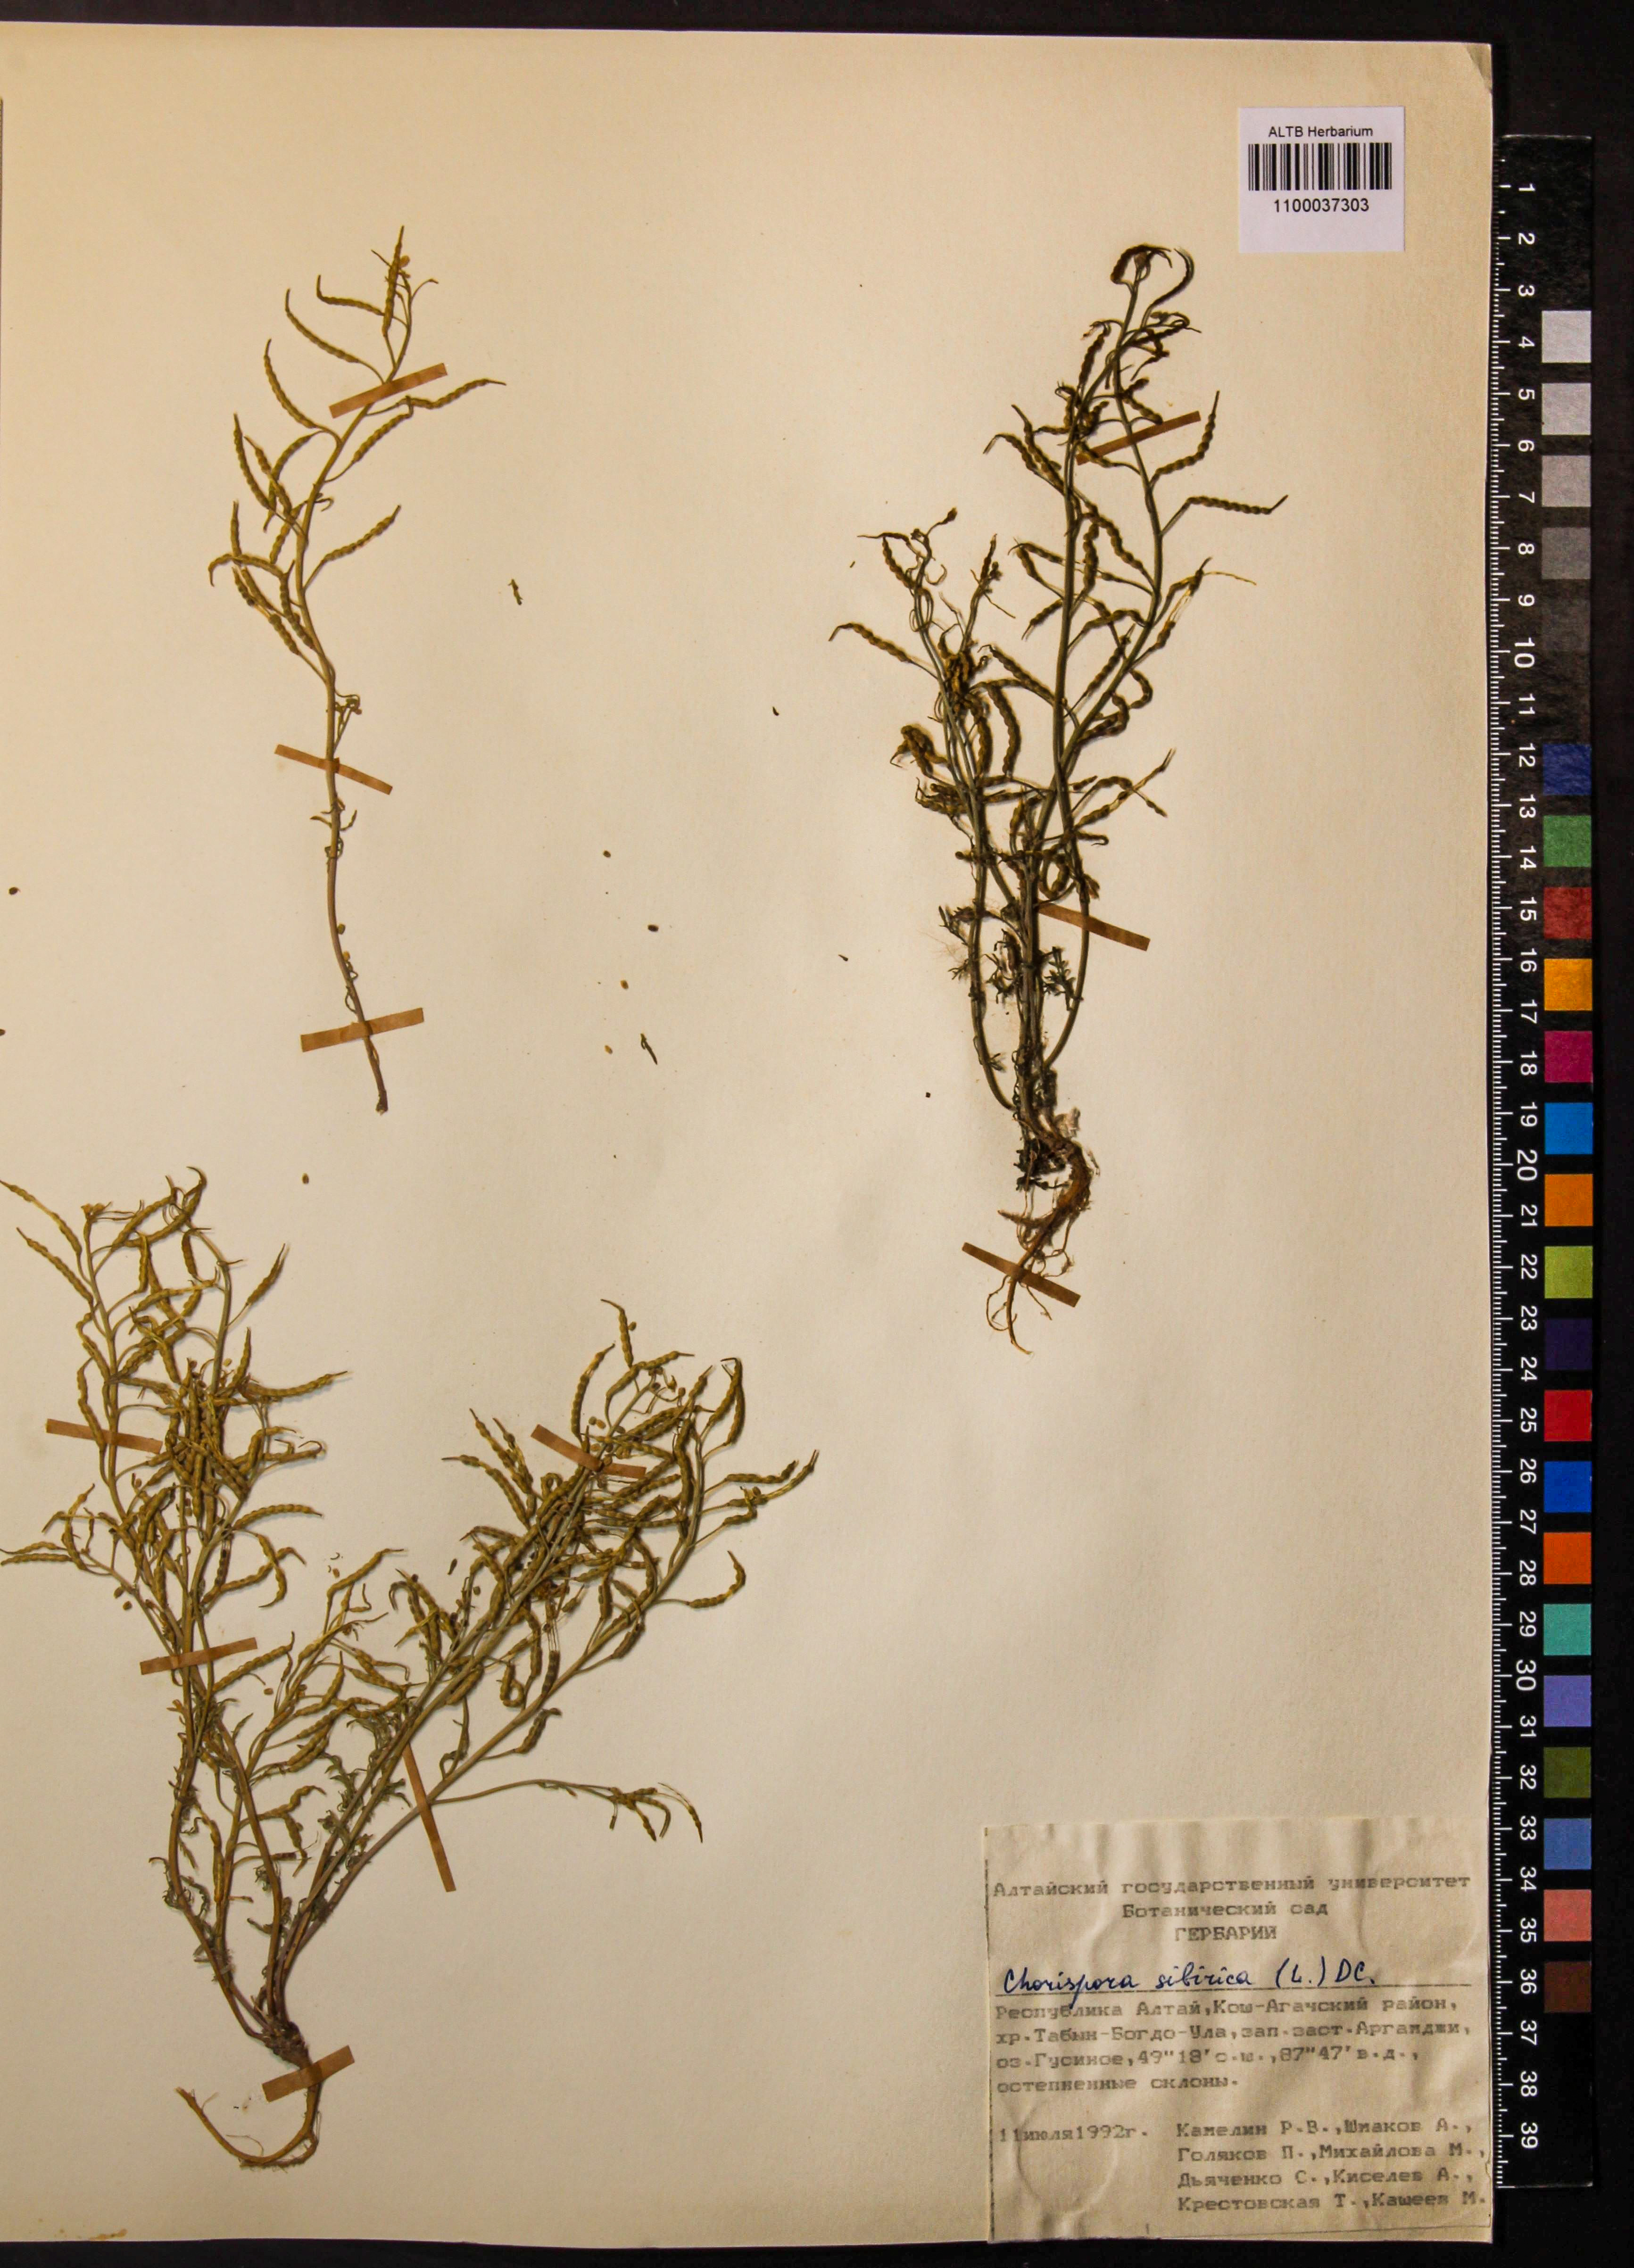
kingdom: Plantae
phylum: Tracheophyta
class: Magnoliopsida
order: Brassicales
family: Brassicaceae
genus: Chorispora
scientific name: Chorispora sibirica
